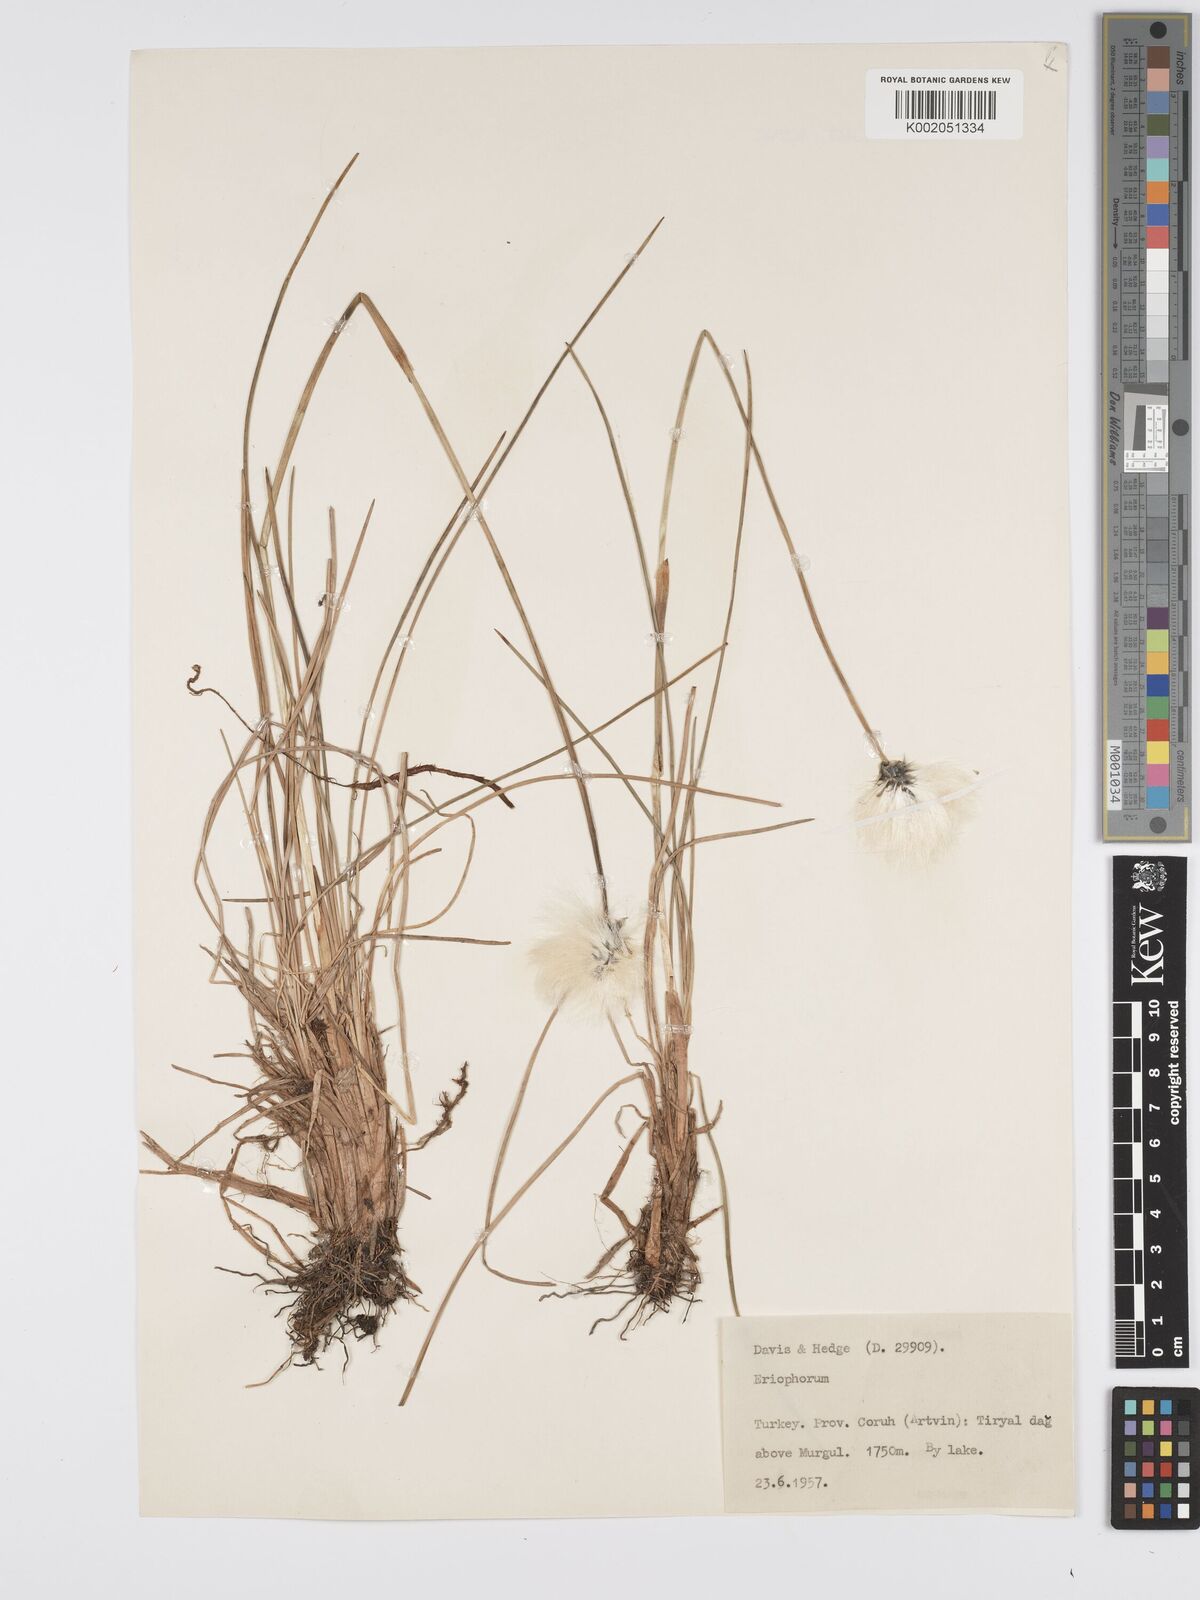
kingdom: Plantae
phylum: Tracheophyta
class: Liliopsida
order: Poales
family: Cyperaceae
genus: Eriophorum
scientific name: Eriophorum vaginatum
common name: Hare's-tail cottongrass
